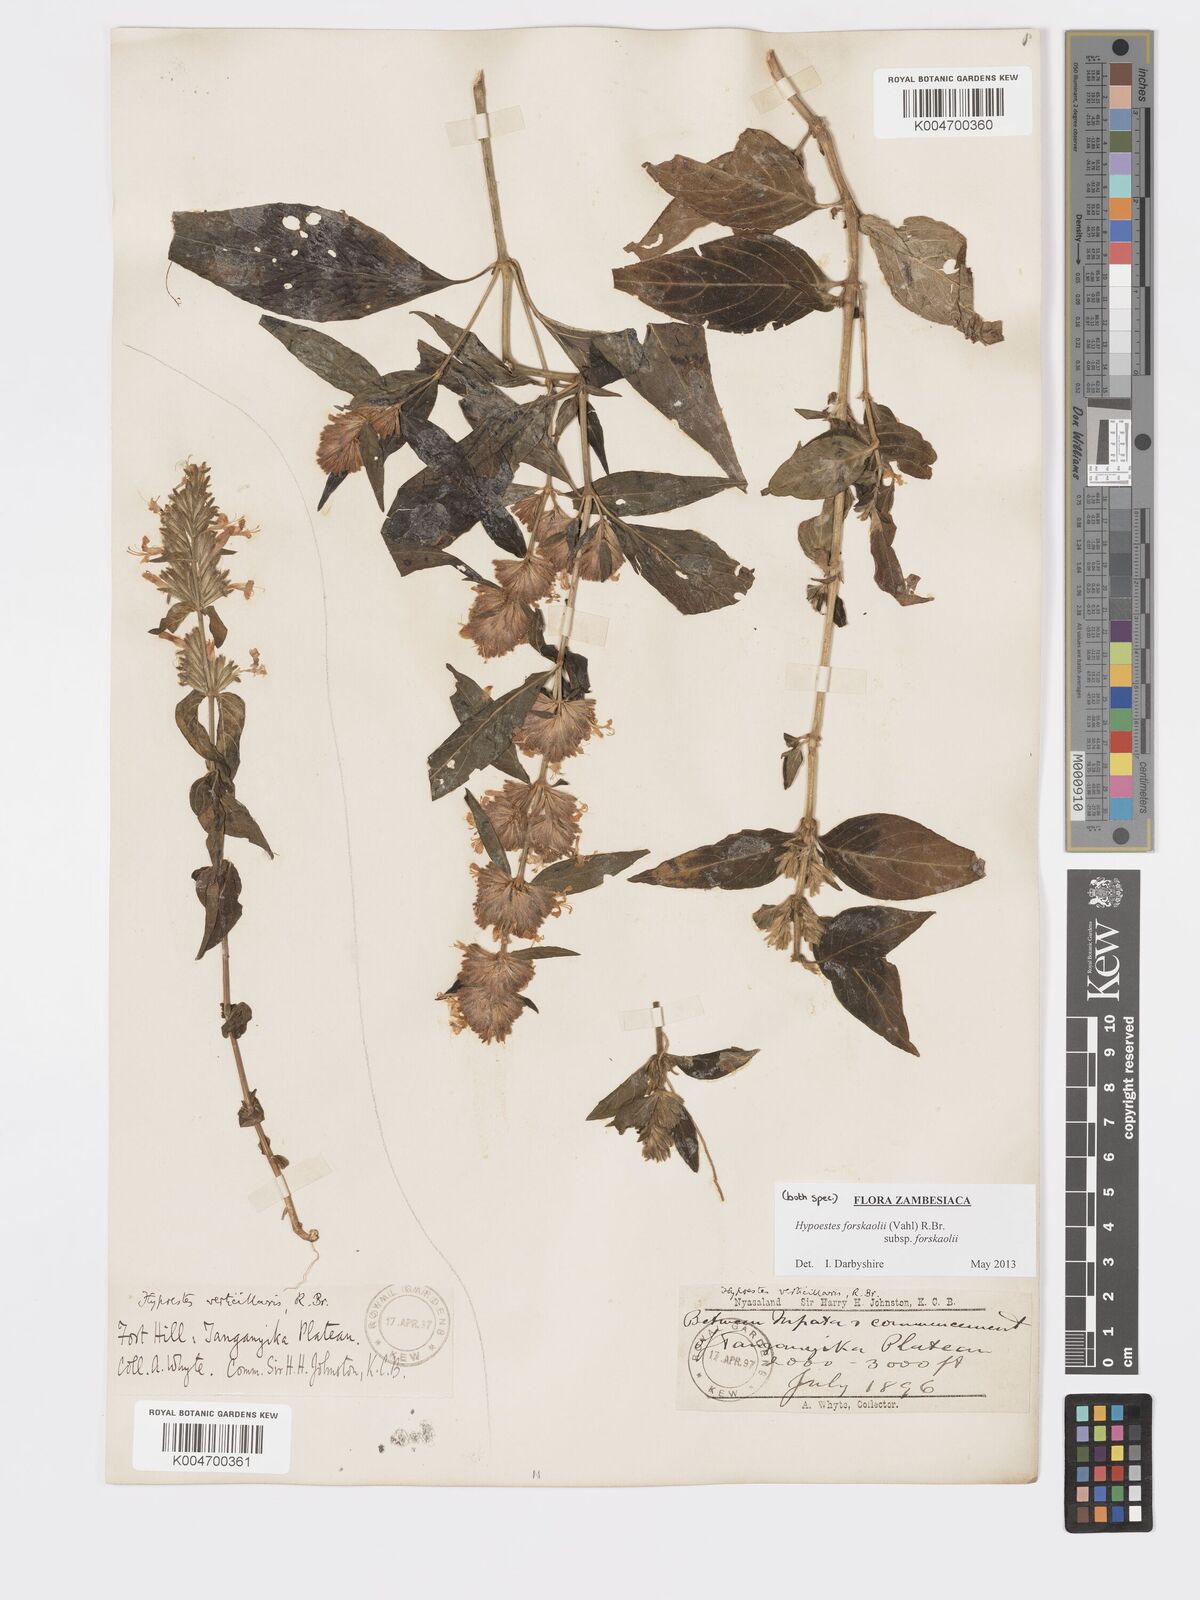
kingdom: Plantae
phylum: Tracheophyta
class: Magnoliopsida
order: Lamiales
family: Acanthaceae
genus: Hypoestes
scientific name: Hypoestes forskaolii
